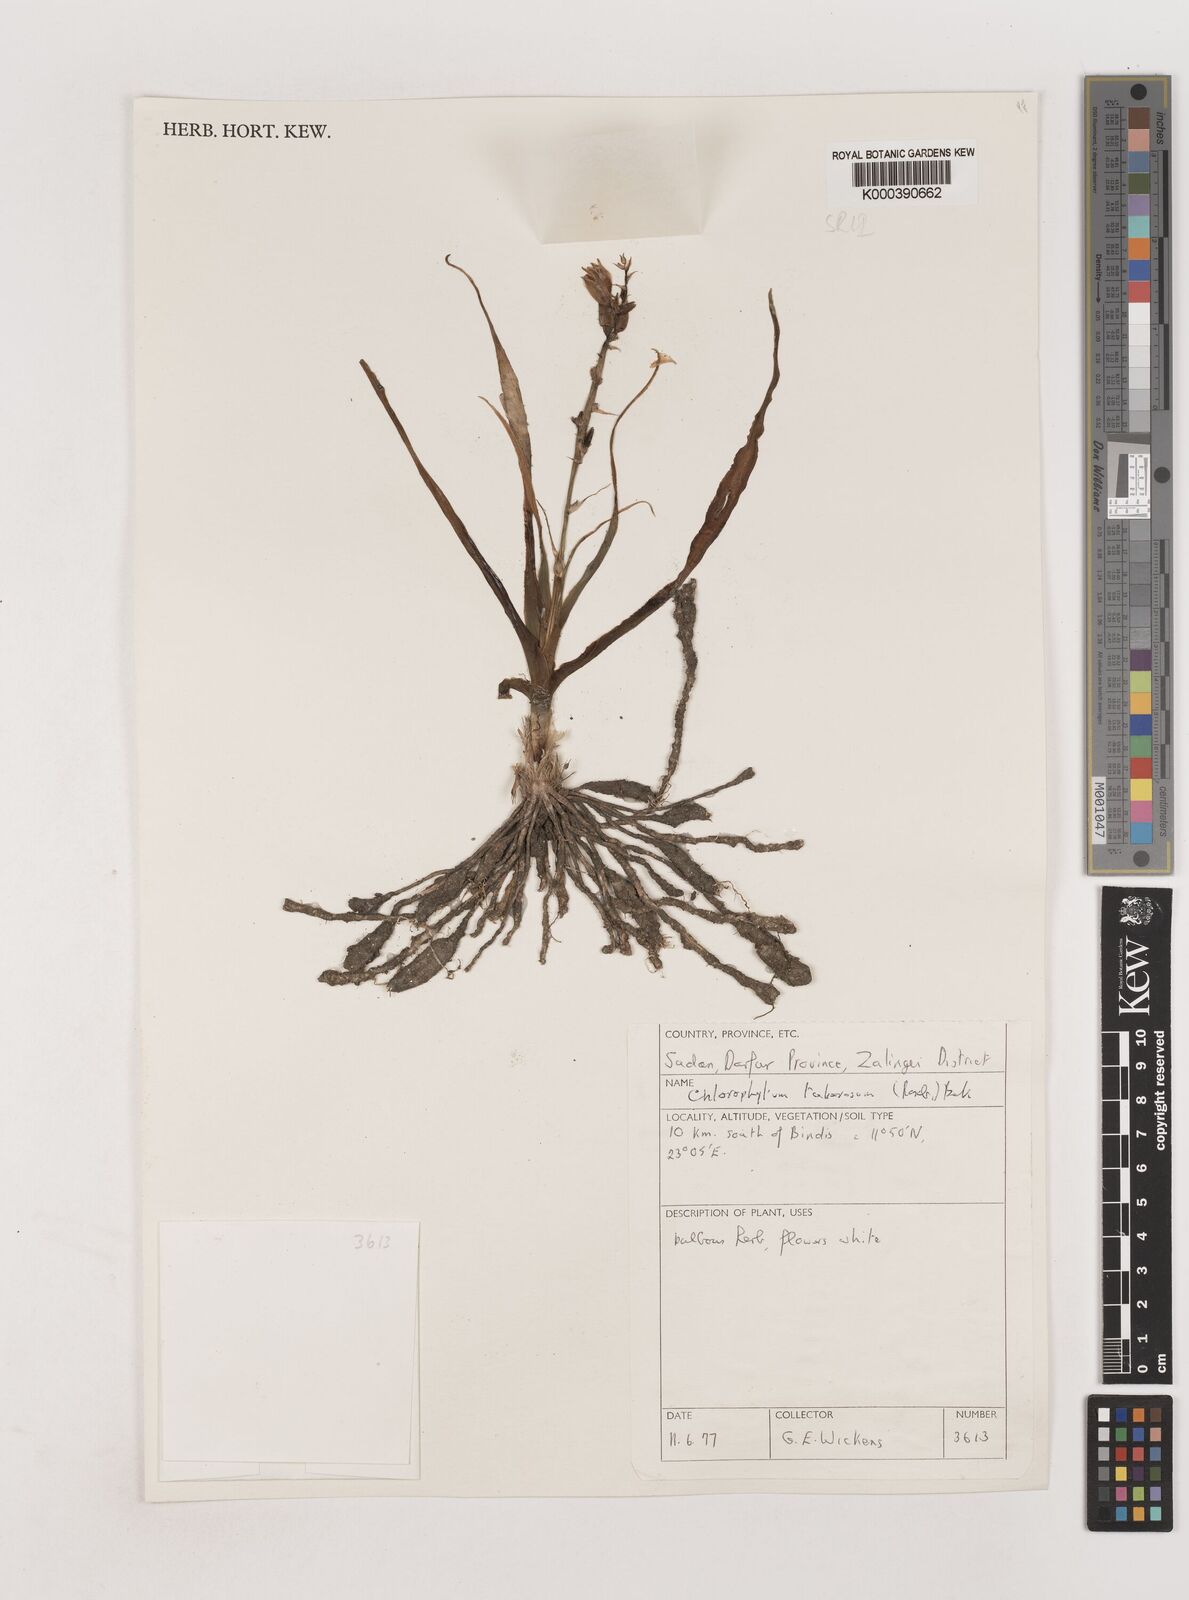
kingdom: Plantae
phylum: Tracheophyta
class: Liliopsida
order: Asparagales
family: Asparagaceae
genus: Chlorophytum
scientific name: Chlorophytum tuberosum
